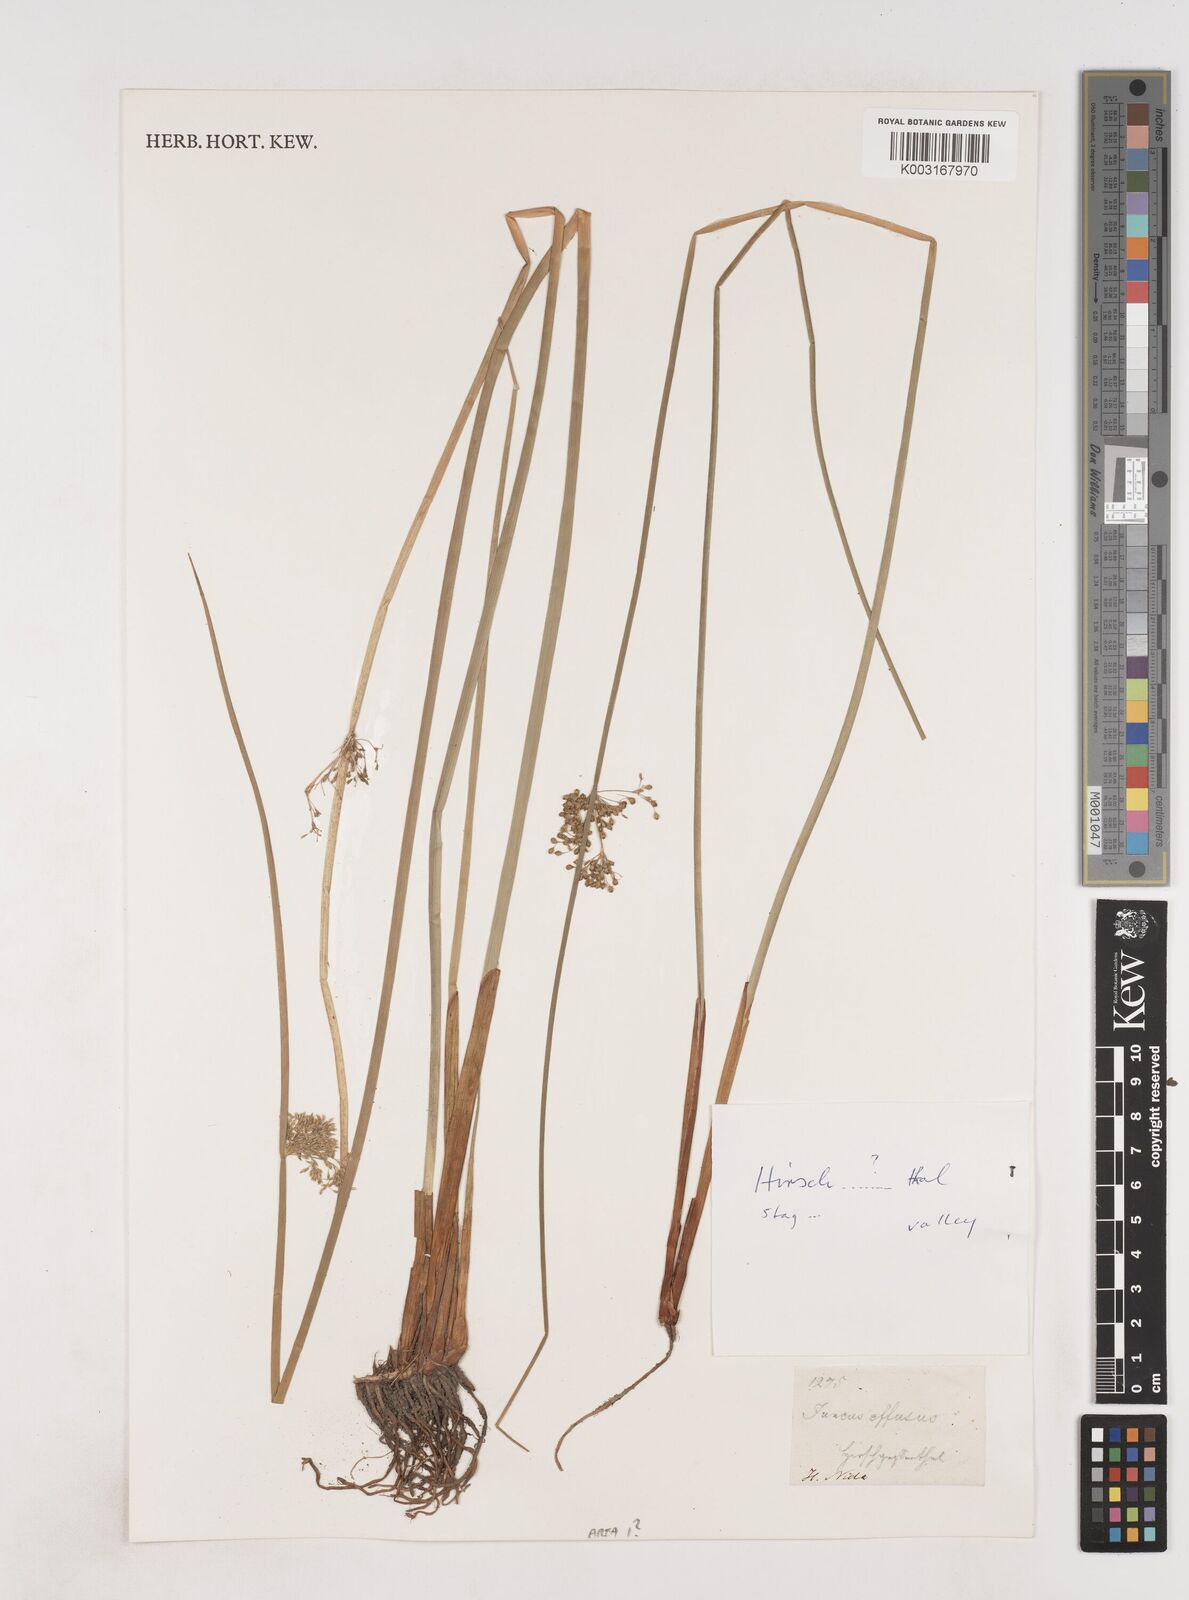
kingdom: Plantae
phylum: Tracheophyta
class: Liliopsida
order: Poales
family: Juncaceae
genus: Juncus
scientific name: Juncus effusus
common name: Soft rush
